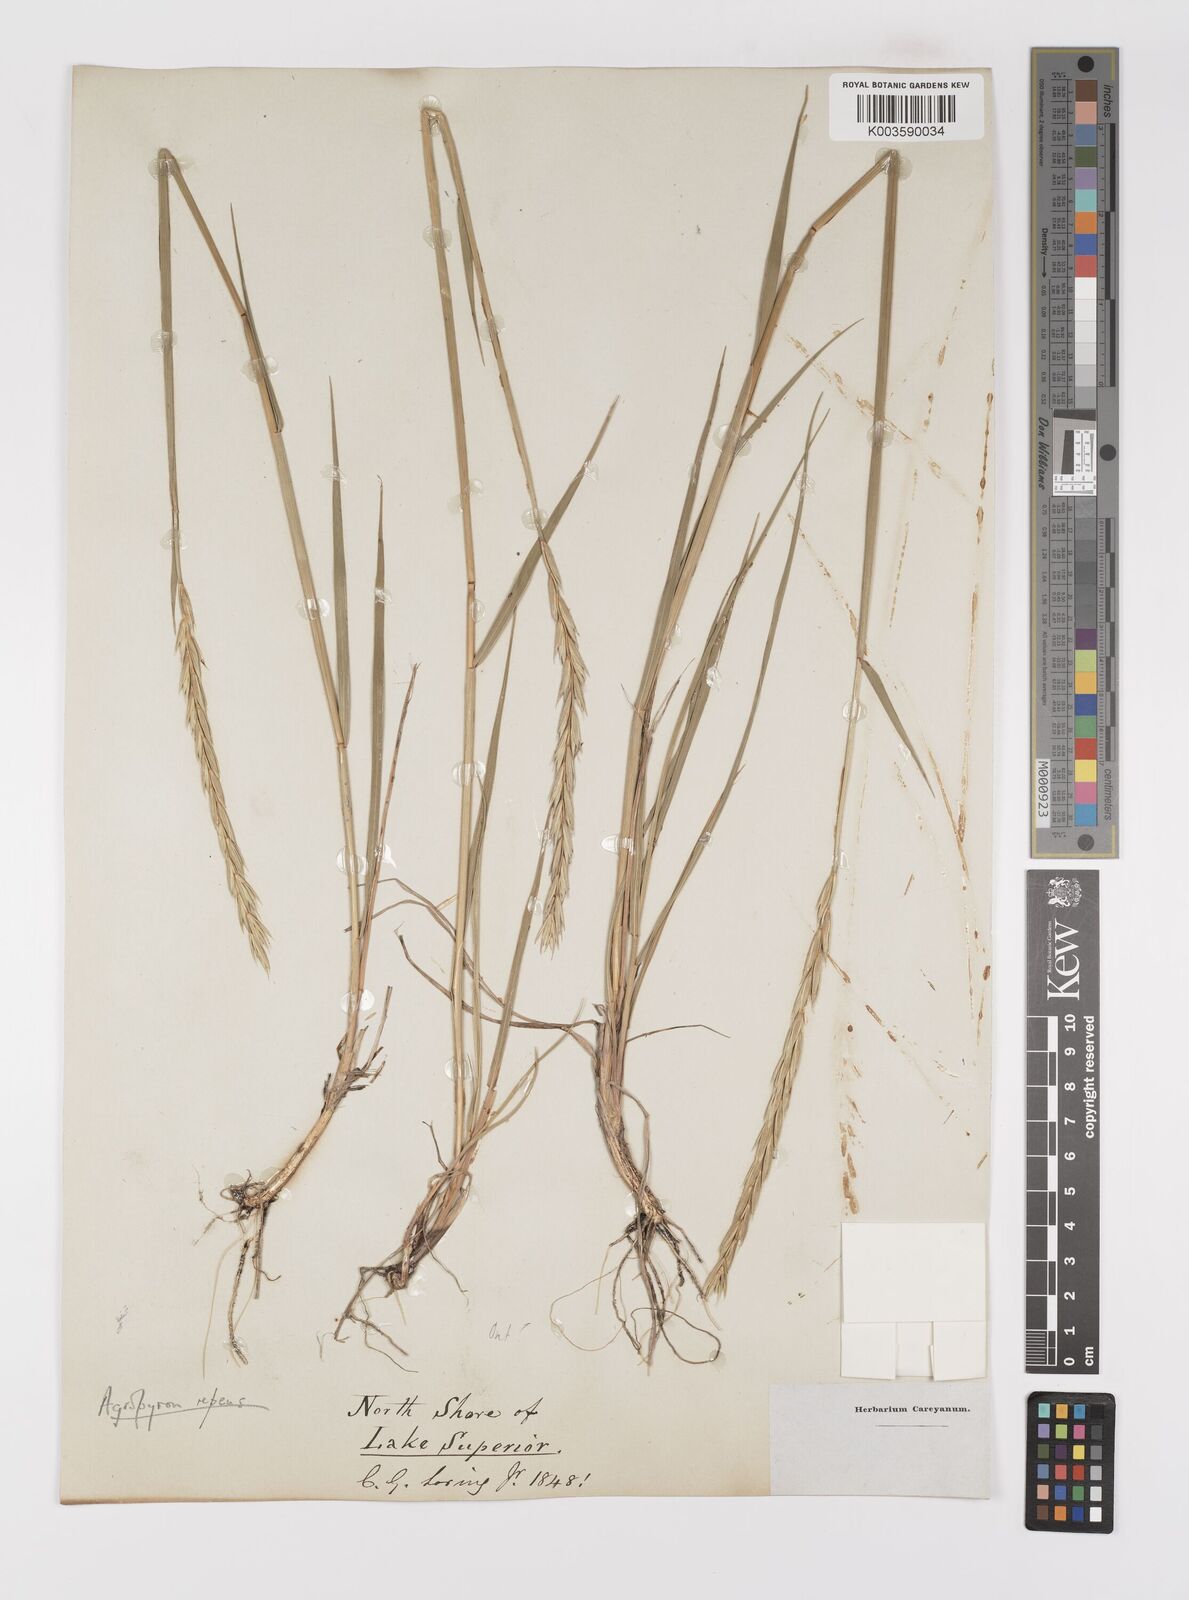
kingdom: Plantae
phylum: Tracheophyta
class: Liliopsida
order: Poales
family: Poaceae
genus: Elymus
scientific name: Elymus repens
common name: Quackgrass
